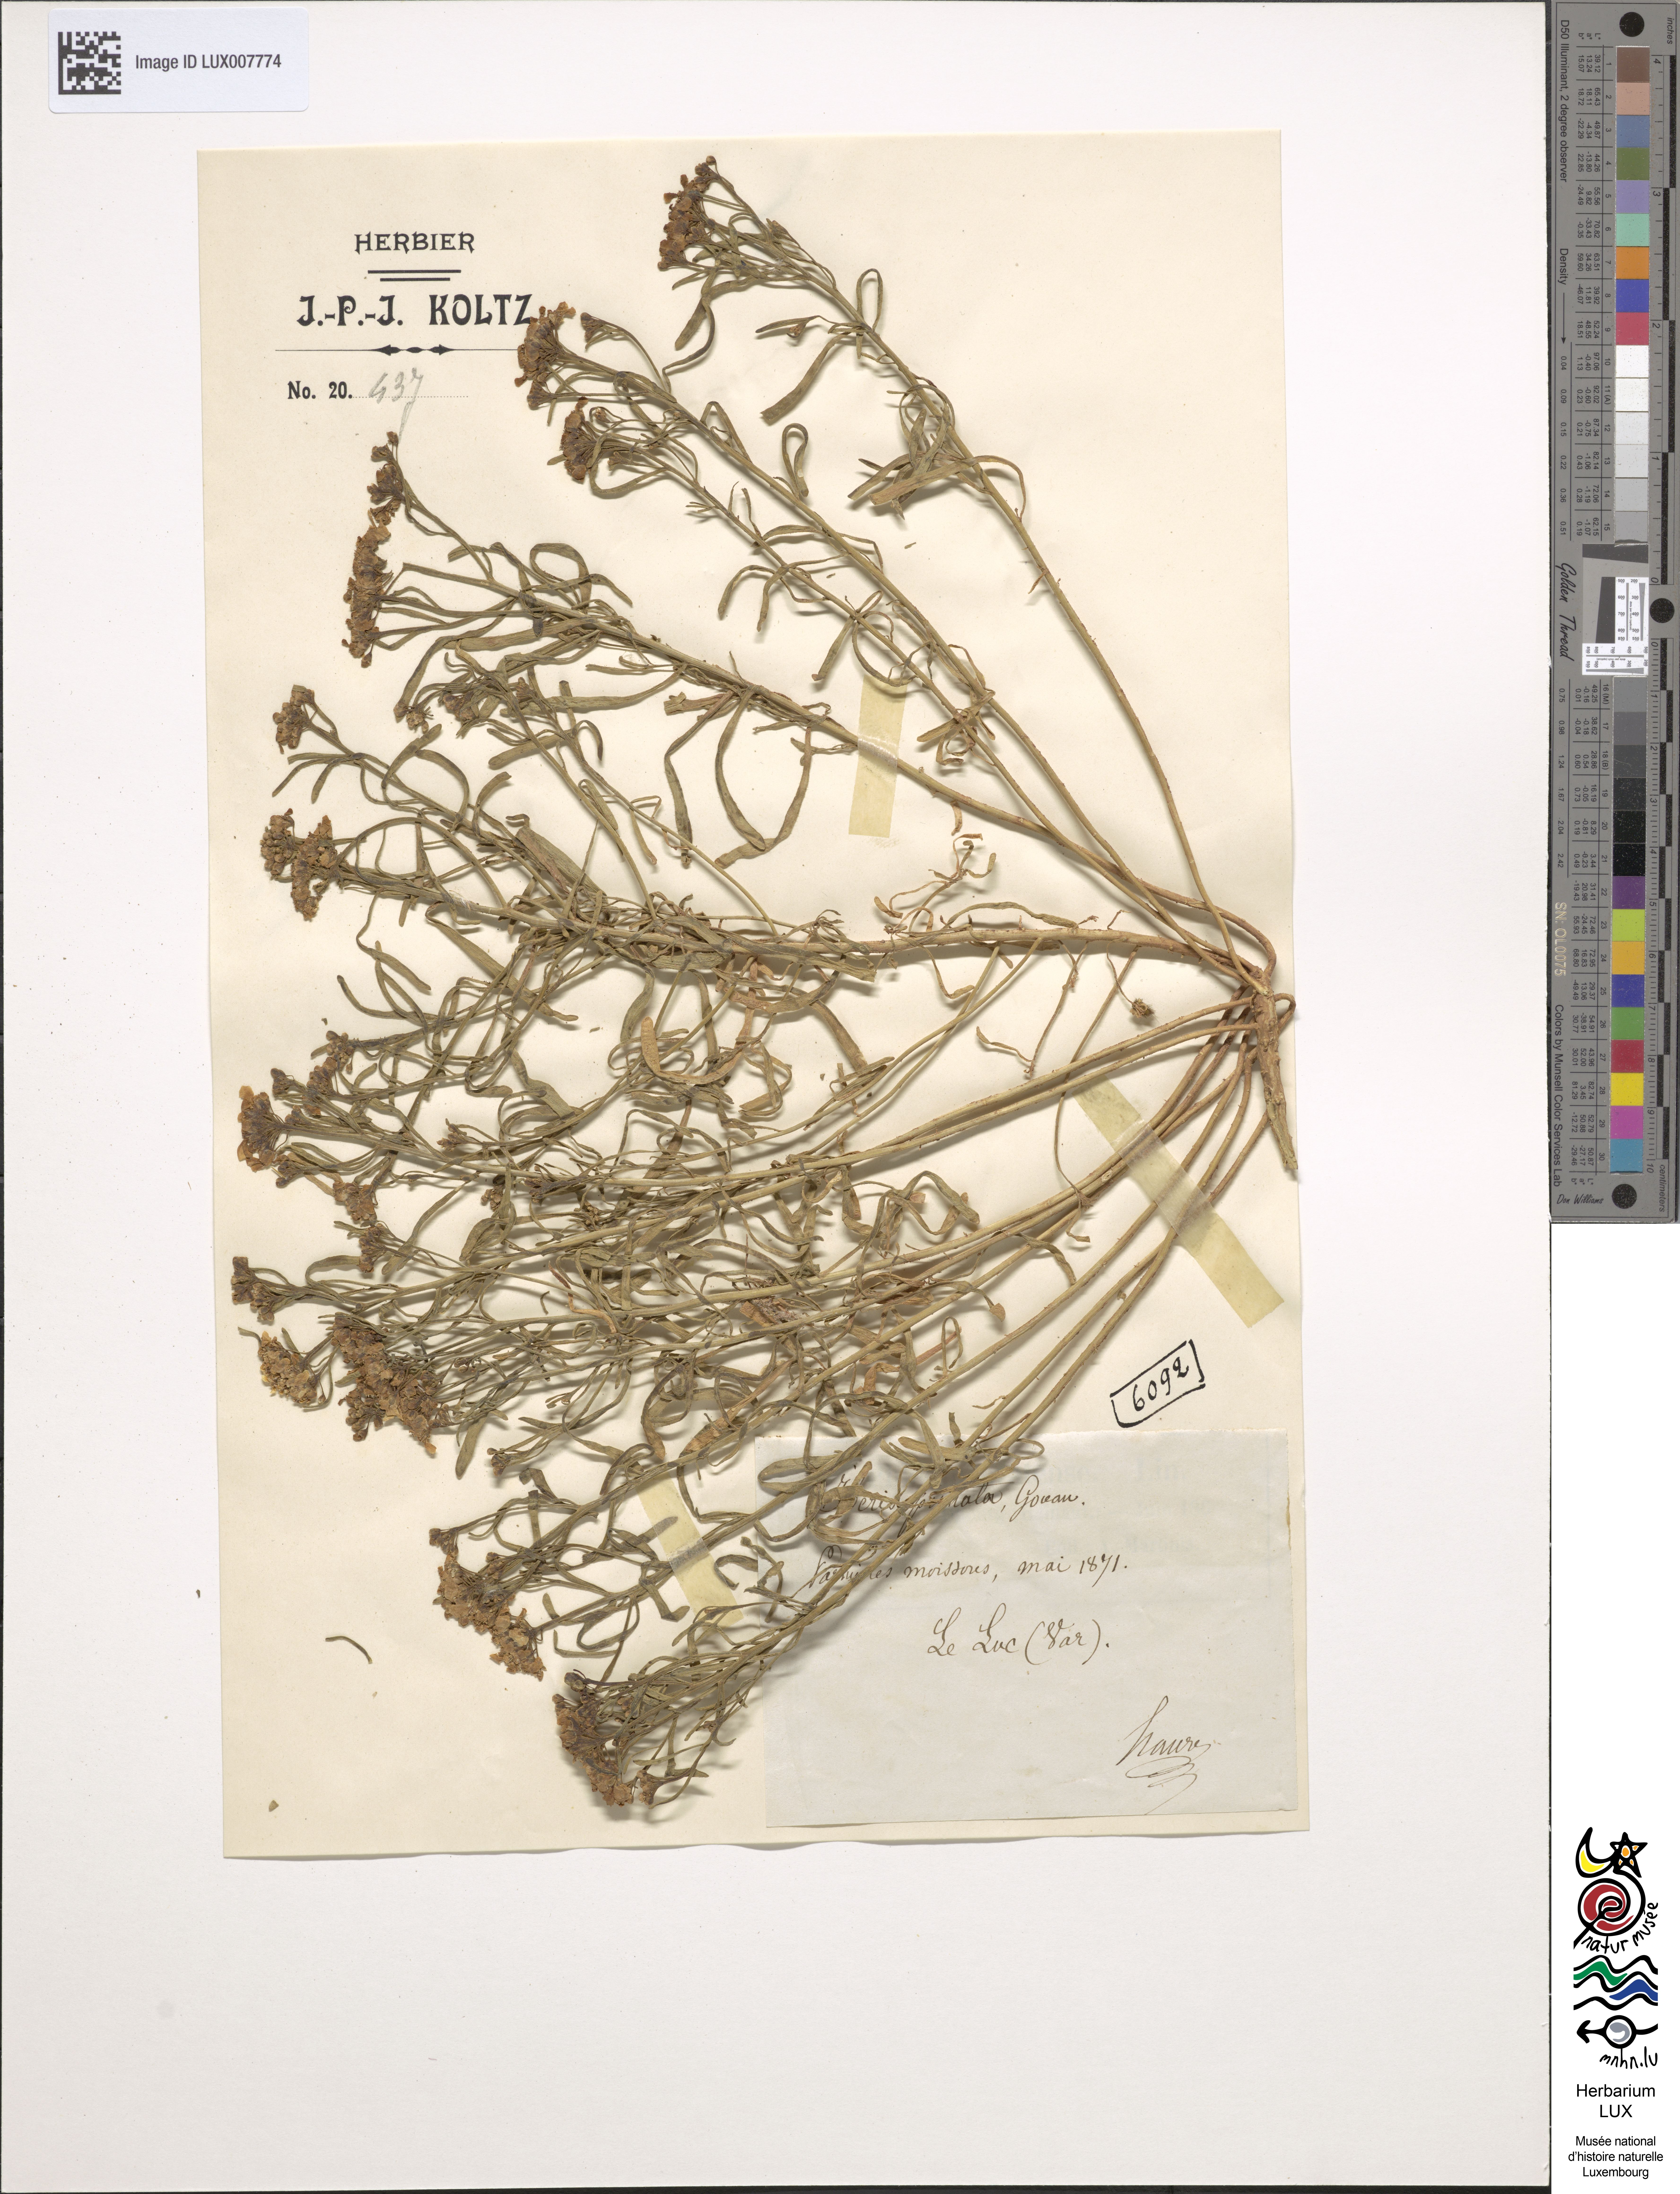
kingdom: Plantae
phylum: Tracheophyta
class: Magnoliopsida
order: Brassicales
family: Brassicaceae
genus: Iberis
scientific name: Iberis pinnata
